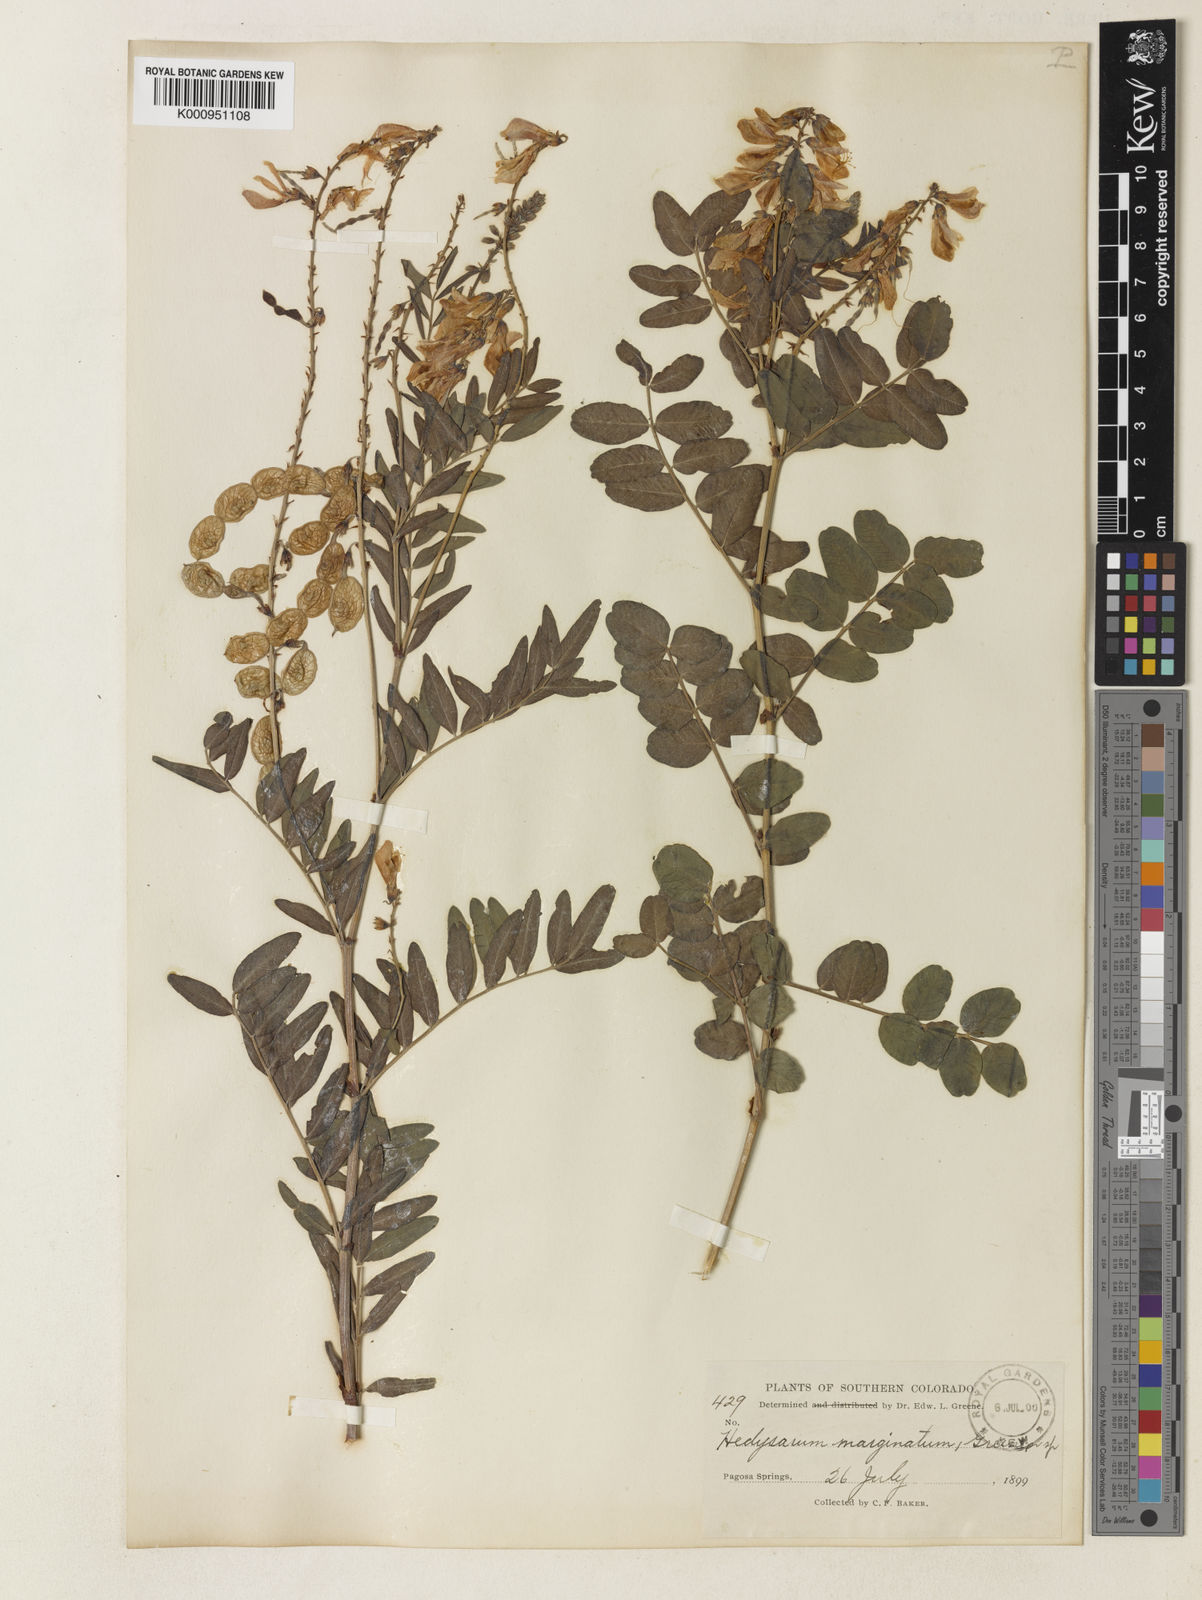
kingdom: Plantae
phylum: Tracheophyta
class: Magnoliopsida
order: Fabales
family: Fabaceae
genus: Hedysarum
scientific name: Hedysarum occidentale
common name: Western hedysarum
